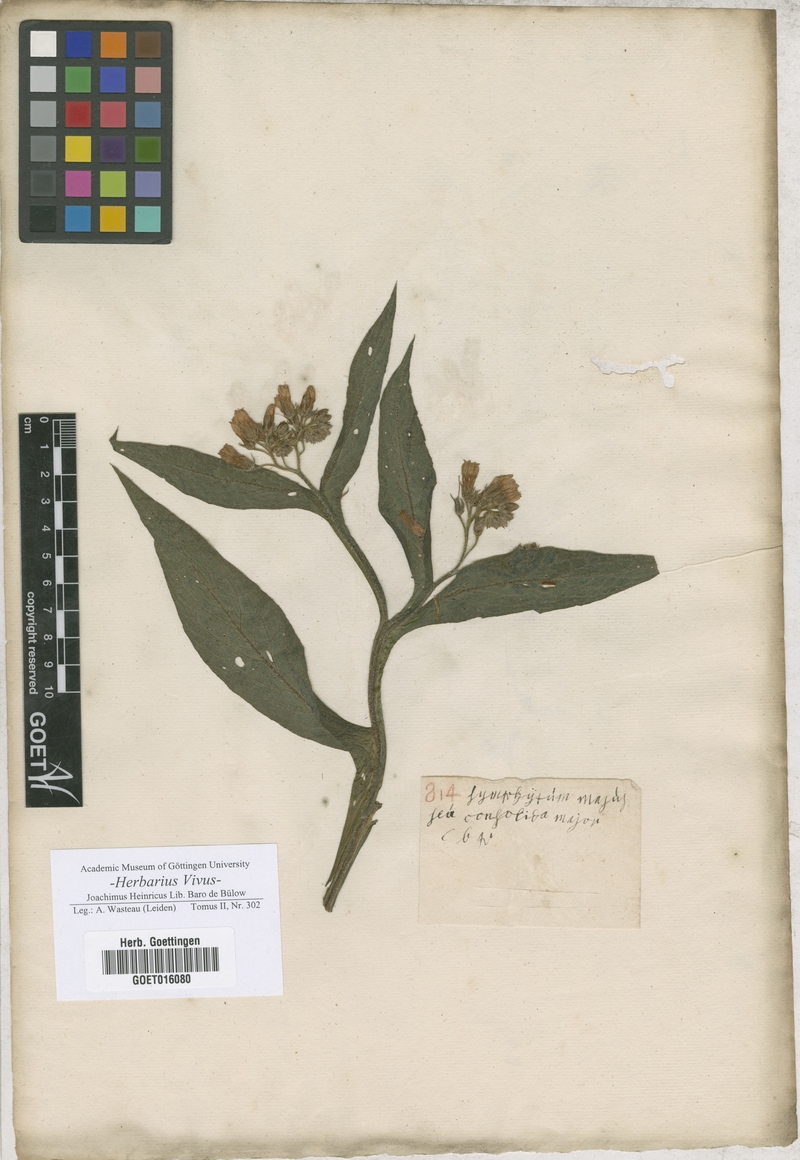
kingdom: Plantae
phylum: Tracheophyta
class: Magnoliopsida
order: Boraginales
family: Boraginaceae
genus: Symphytum
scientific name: Symphytum officinale
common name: Common comfrey
